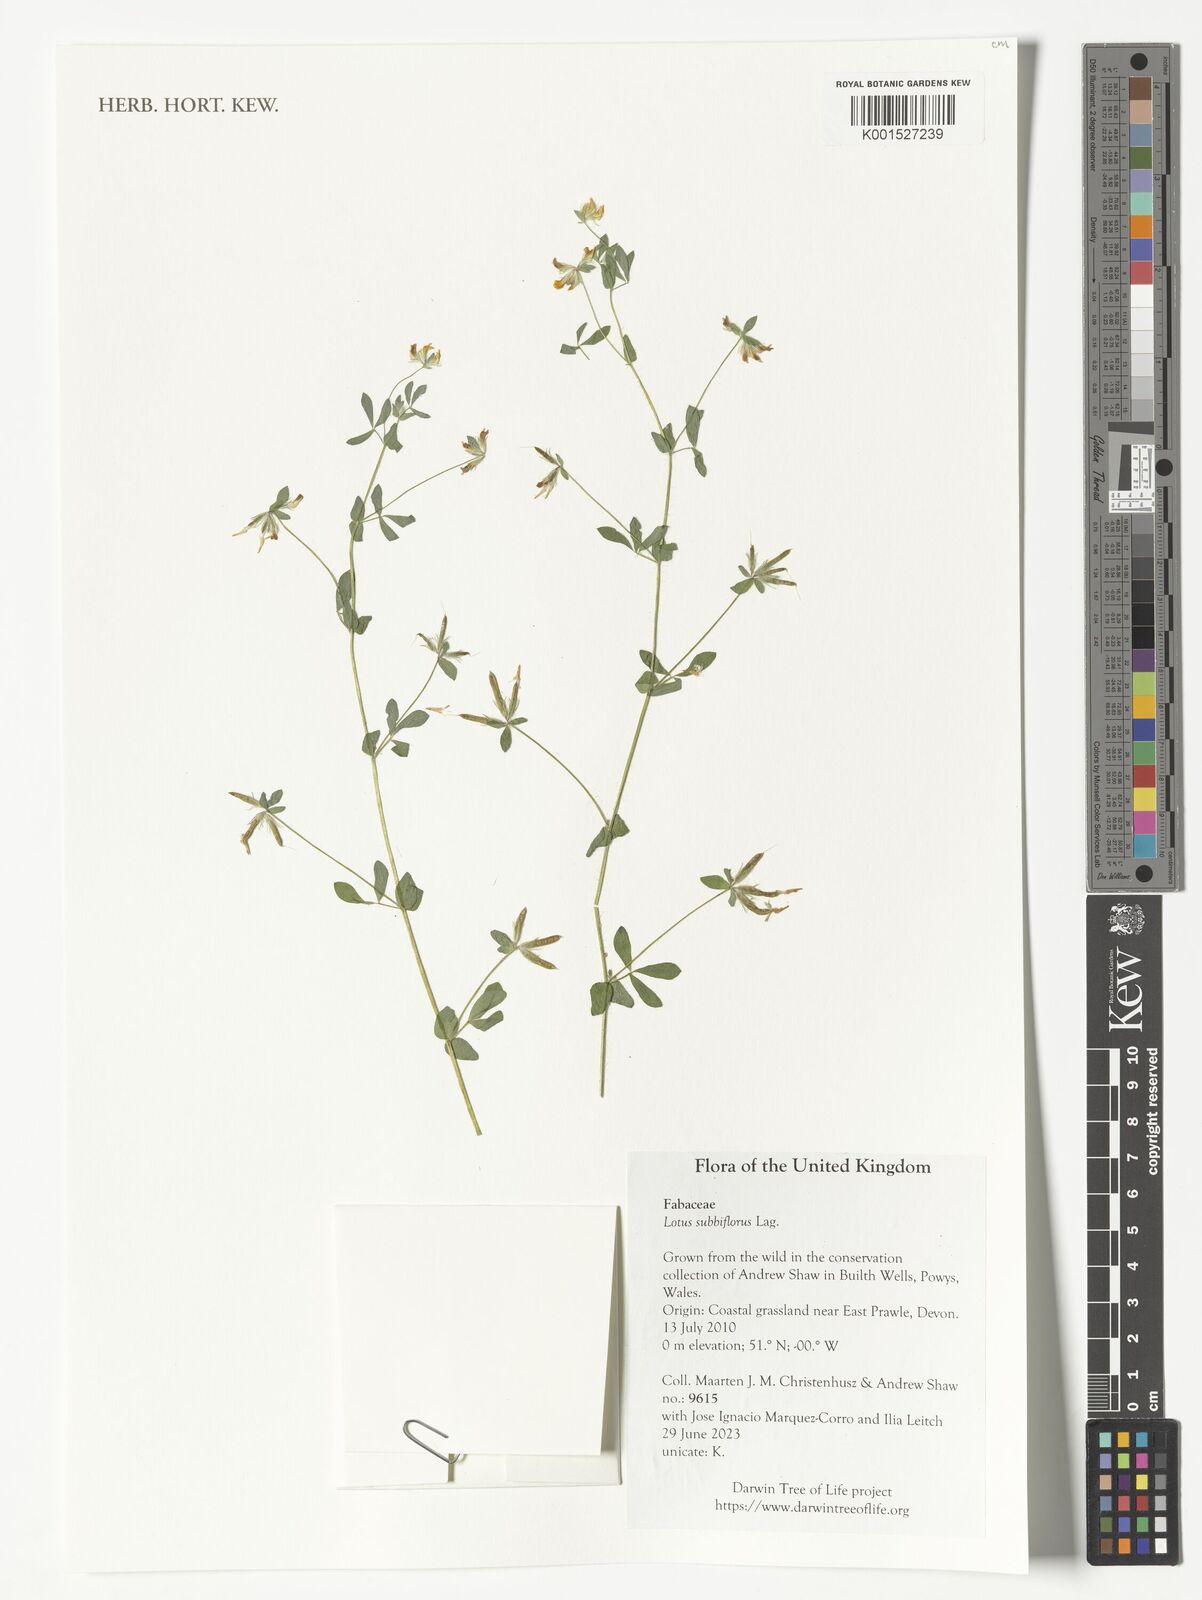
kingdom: Plantae
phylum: Tracheophyta
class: Magnoliopsida
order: Fabales
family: Fabaceae
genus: Lotus
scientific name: Lotus subbiflorus
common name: Hairy bird's-foot trefoil
